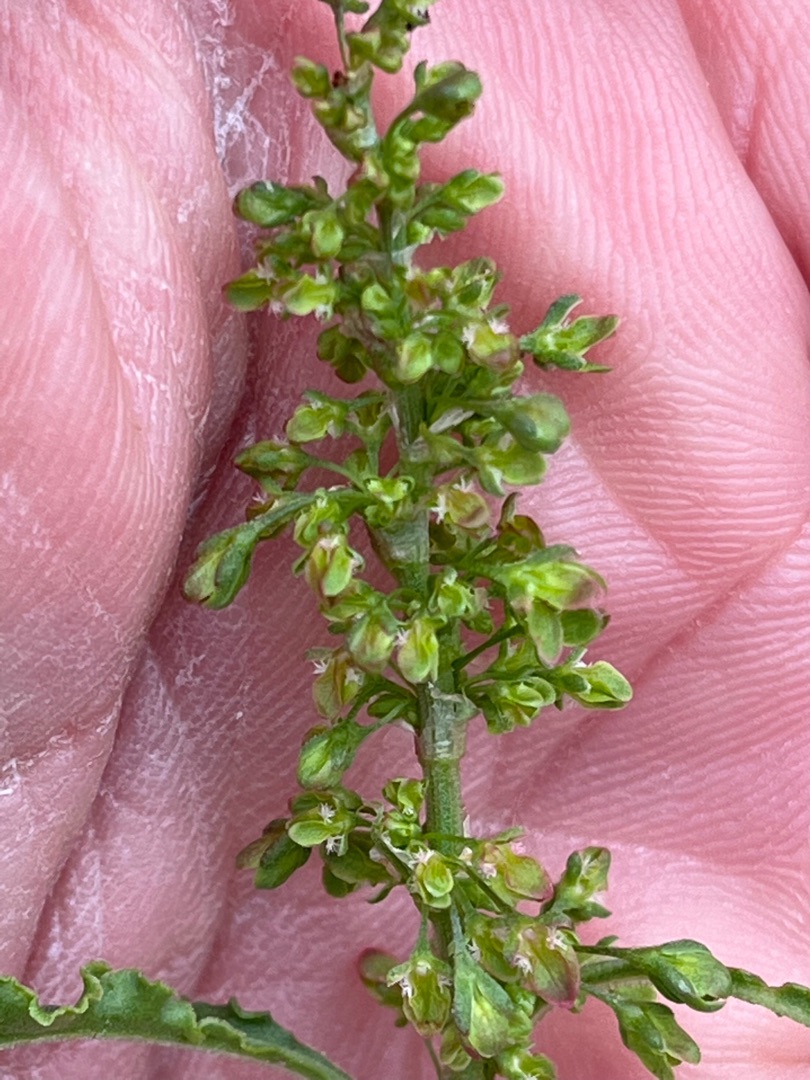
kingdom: Plantae
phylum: Tracheophyta
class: Magnoliopsida
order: Caryophyllales
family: Polygonaceae
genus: Rumex
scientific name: Rumex crispus
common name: Kruset skræppe
